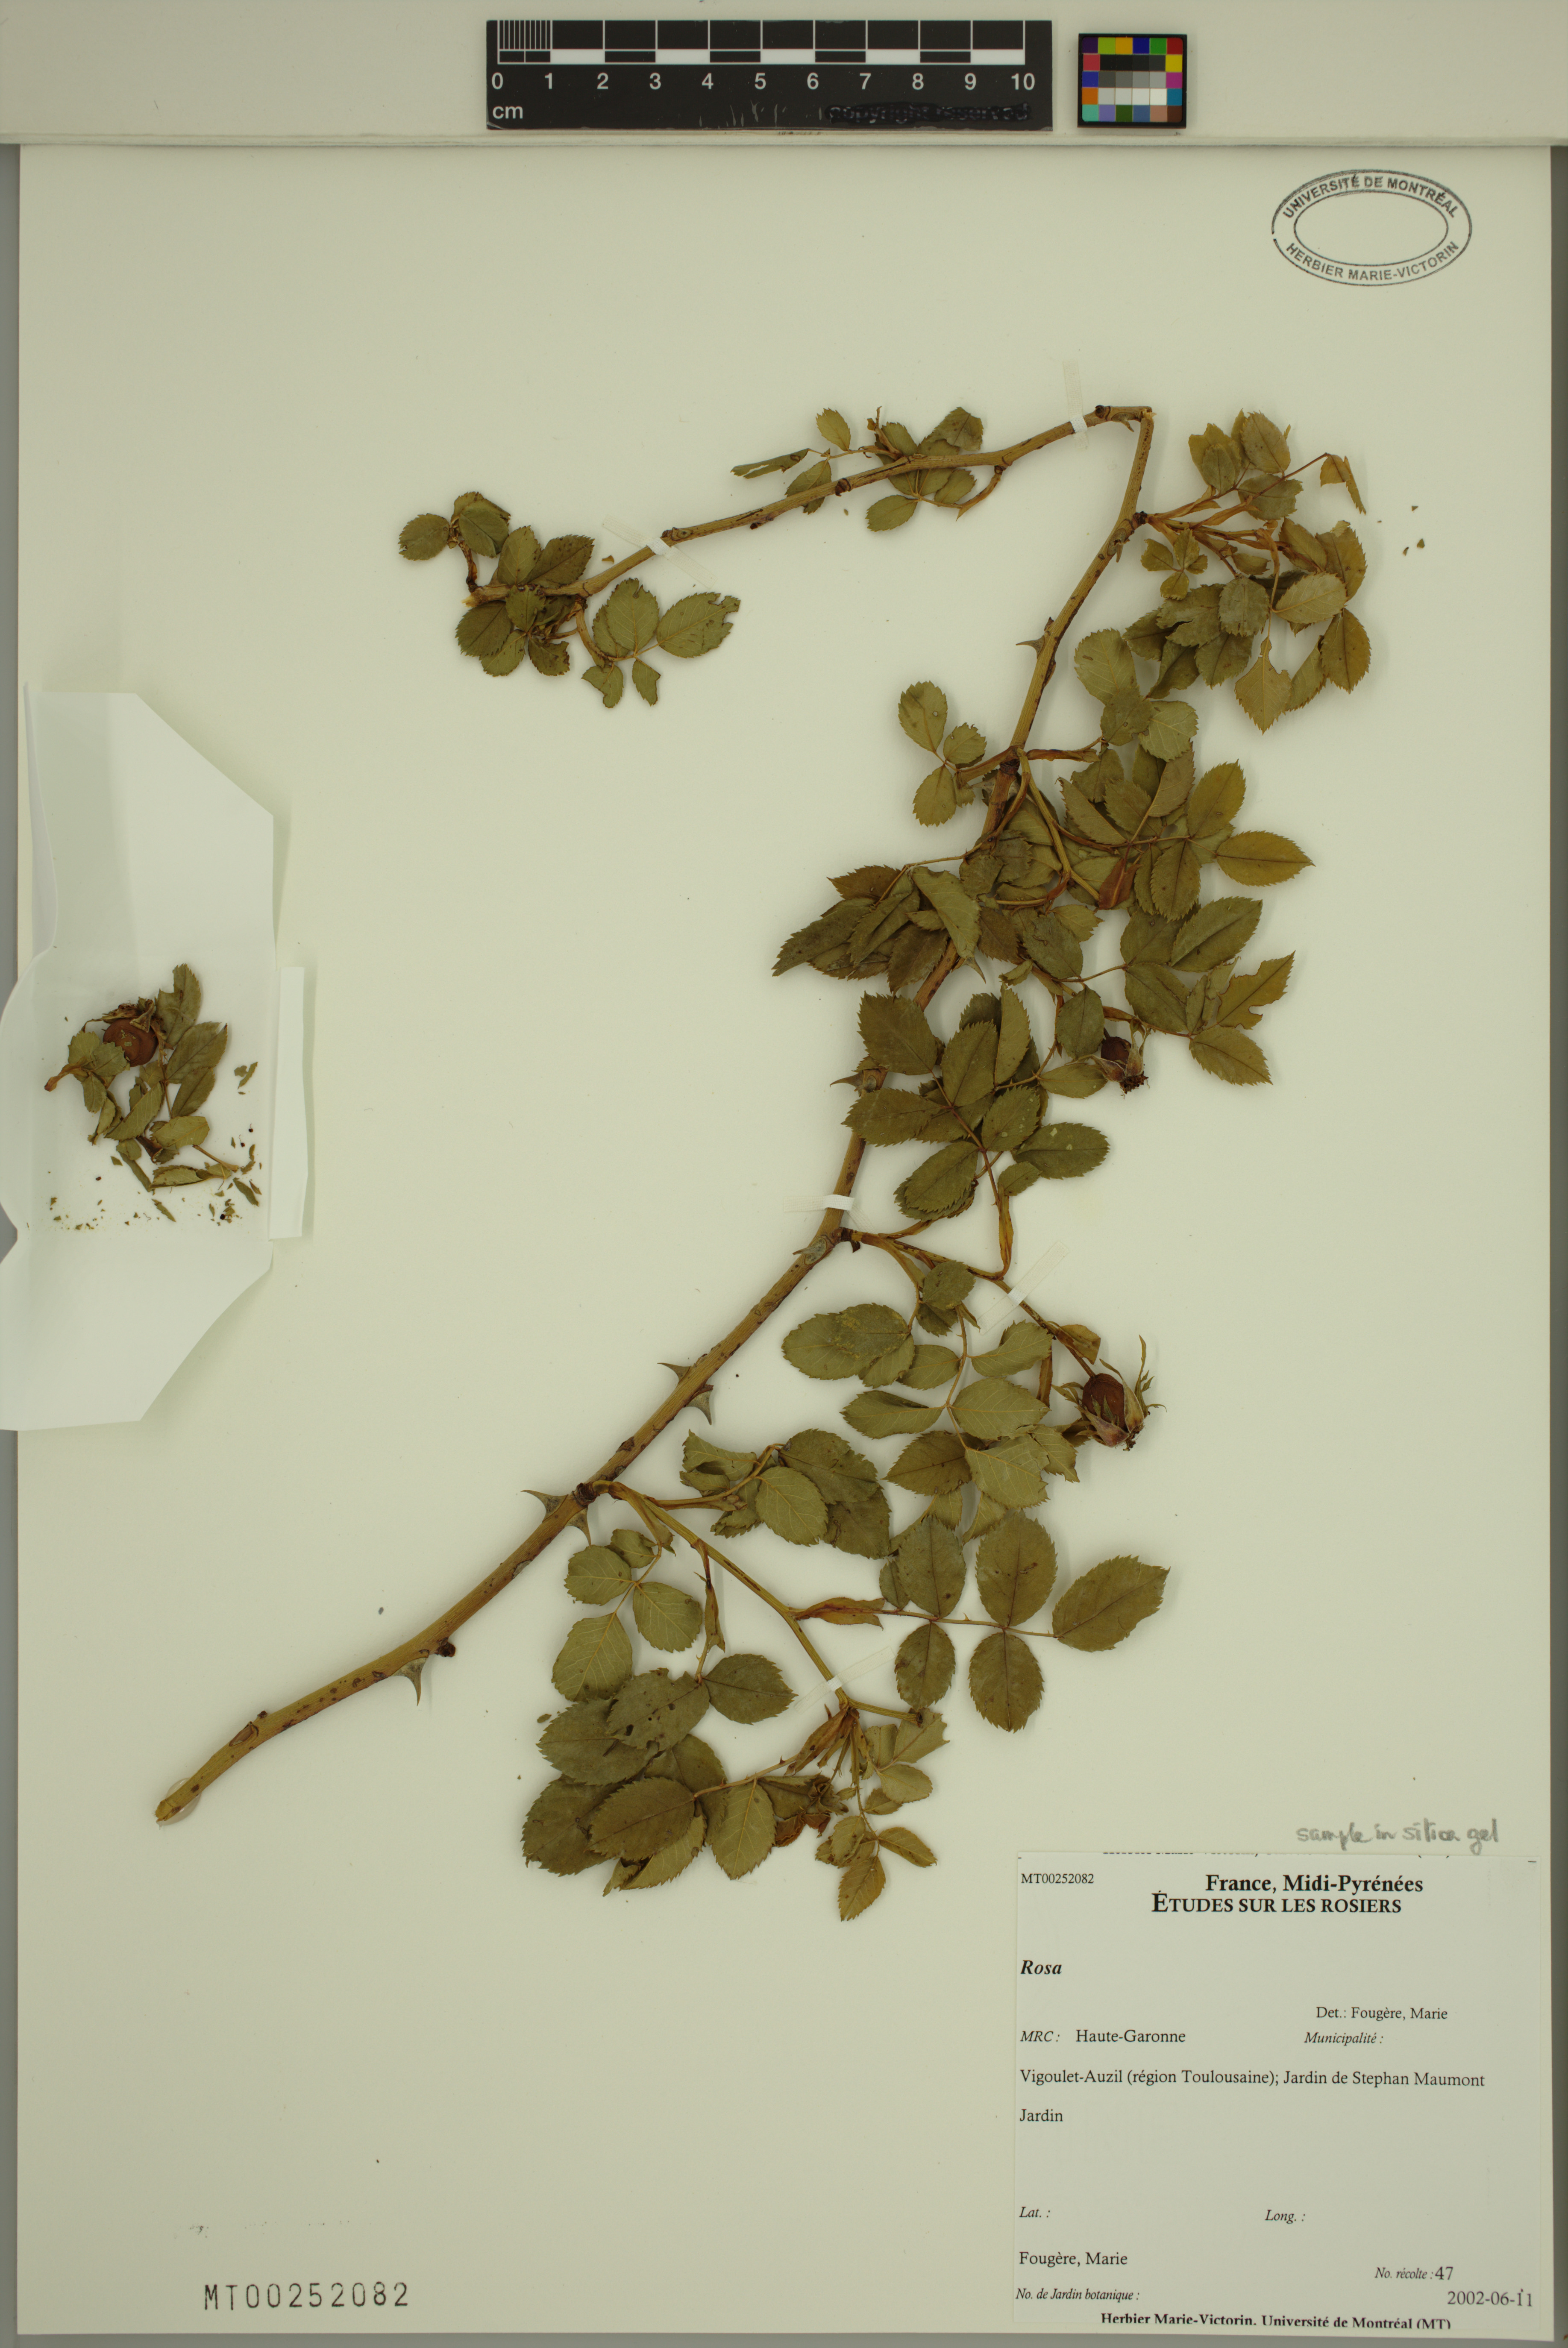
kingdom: Plantae
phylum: Tracheophyta
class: Magnoliopsida
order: Rosales
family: Rosaceae
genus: Rosa
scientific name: Rosa
